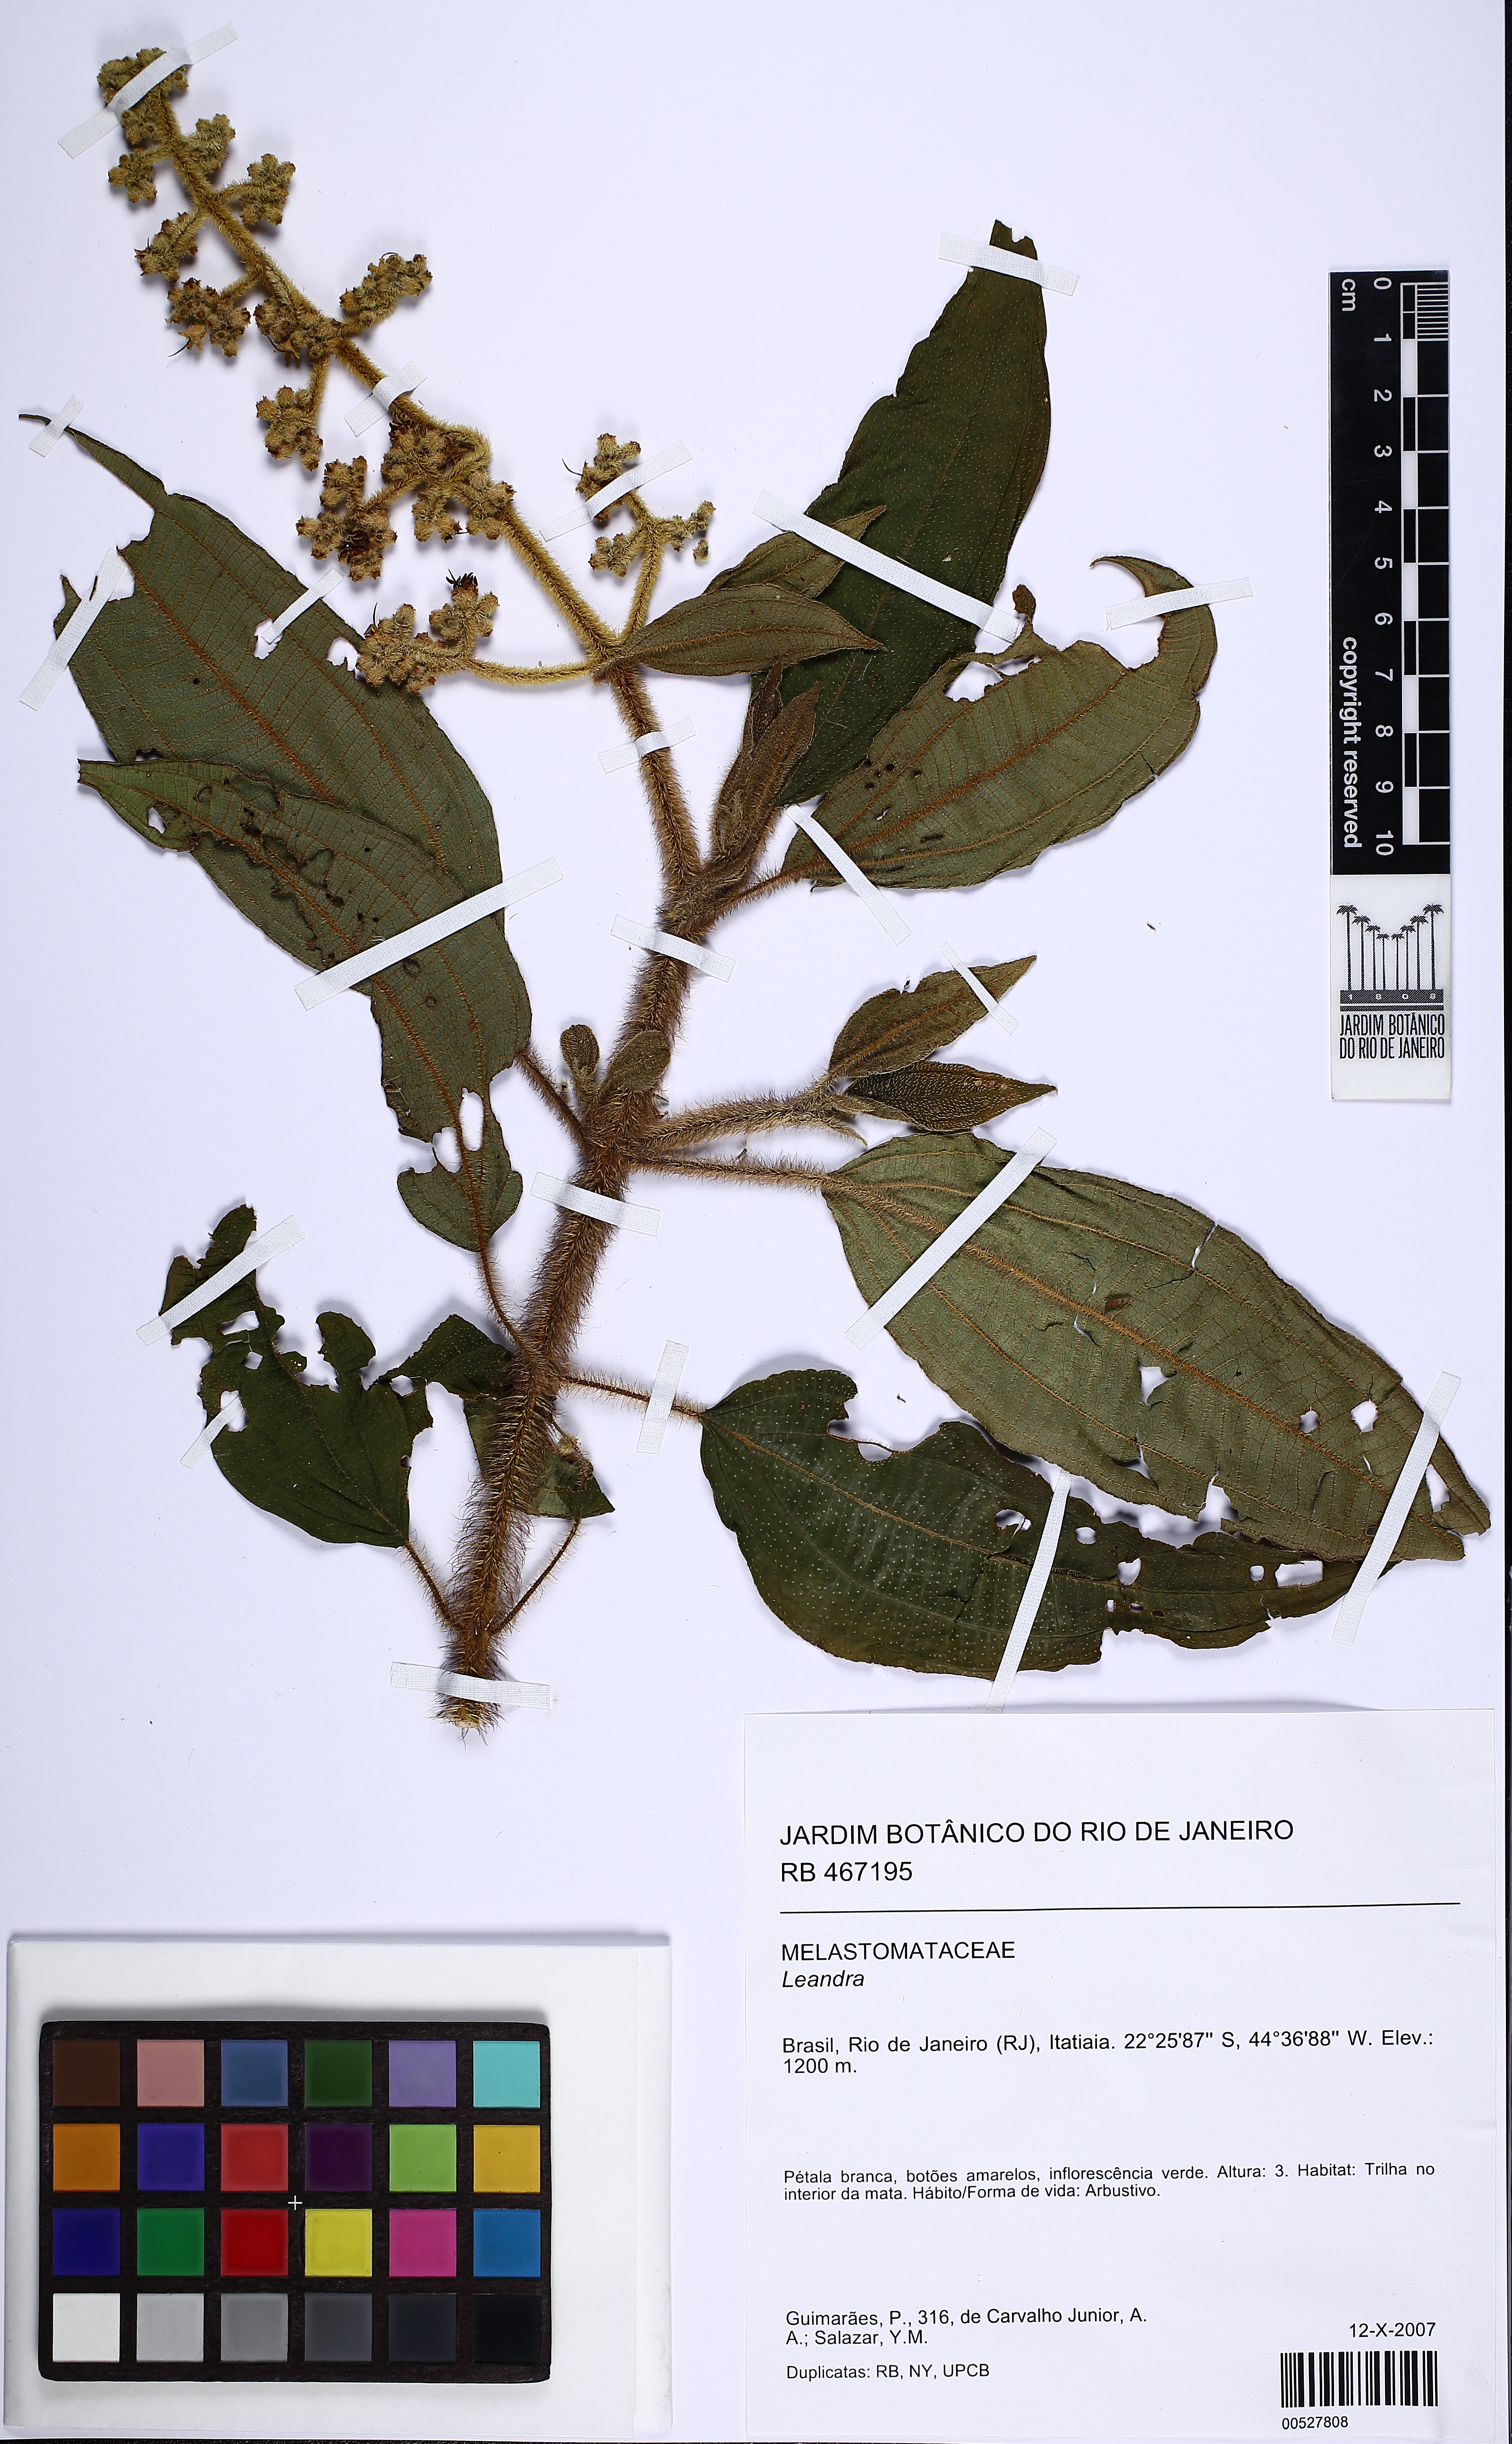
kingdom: Plantae
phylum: Tracheophyta
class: Magnoliopsida
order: Myrtales
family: Melastomataceae
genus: Miconia
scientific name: Miconia
